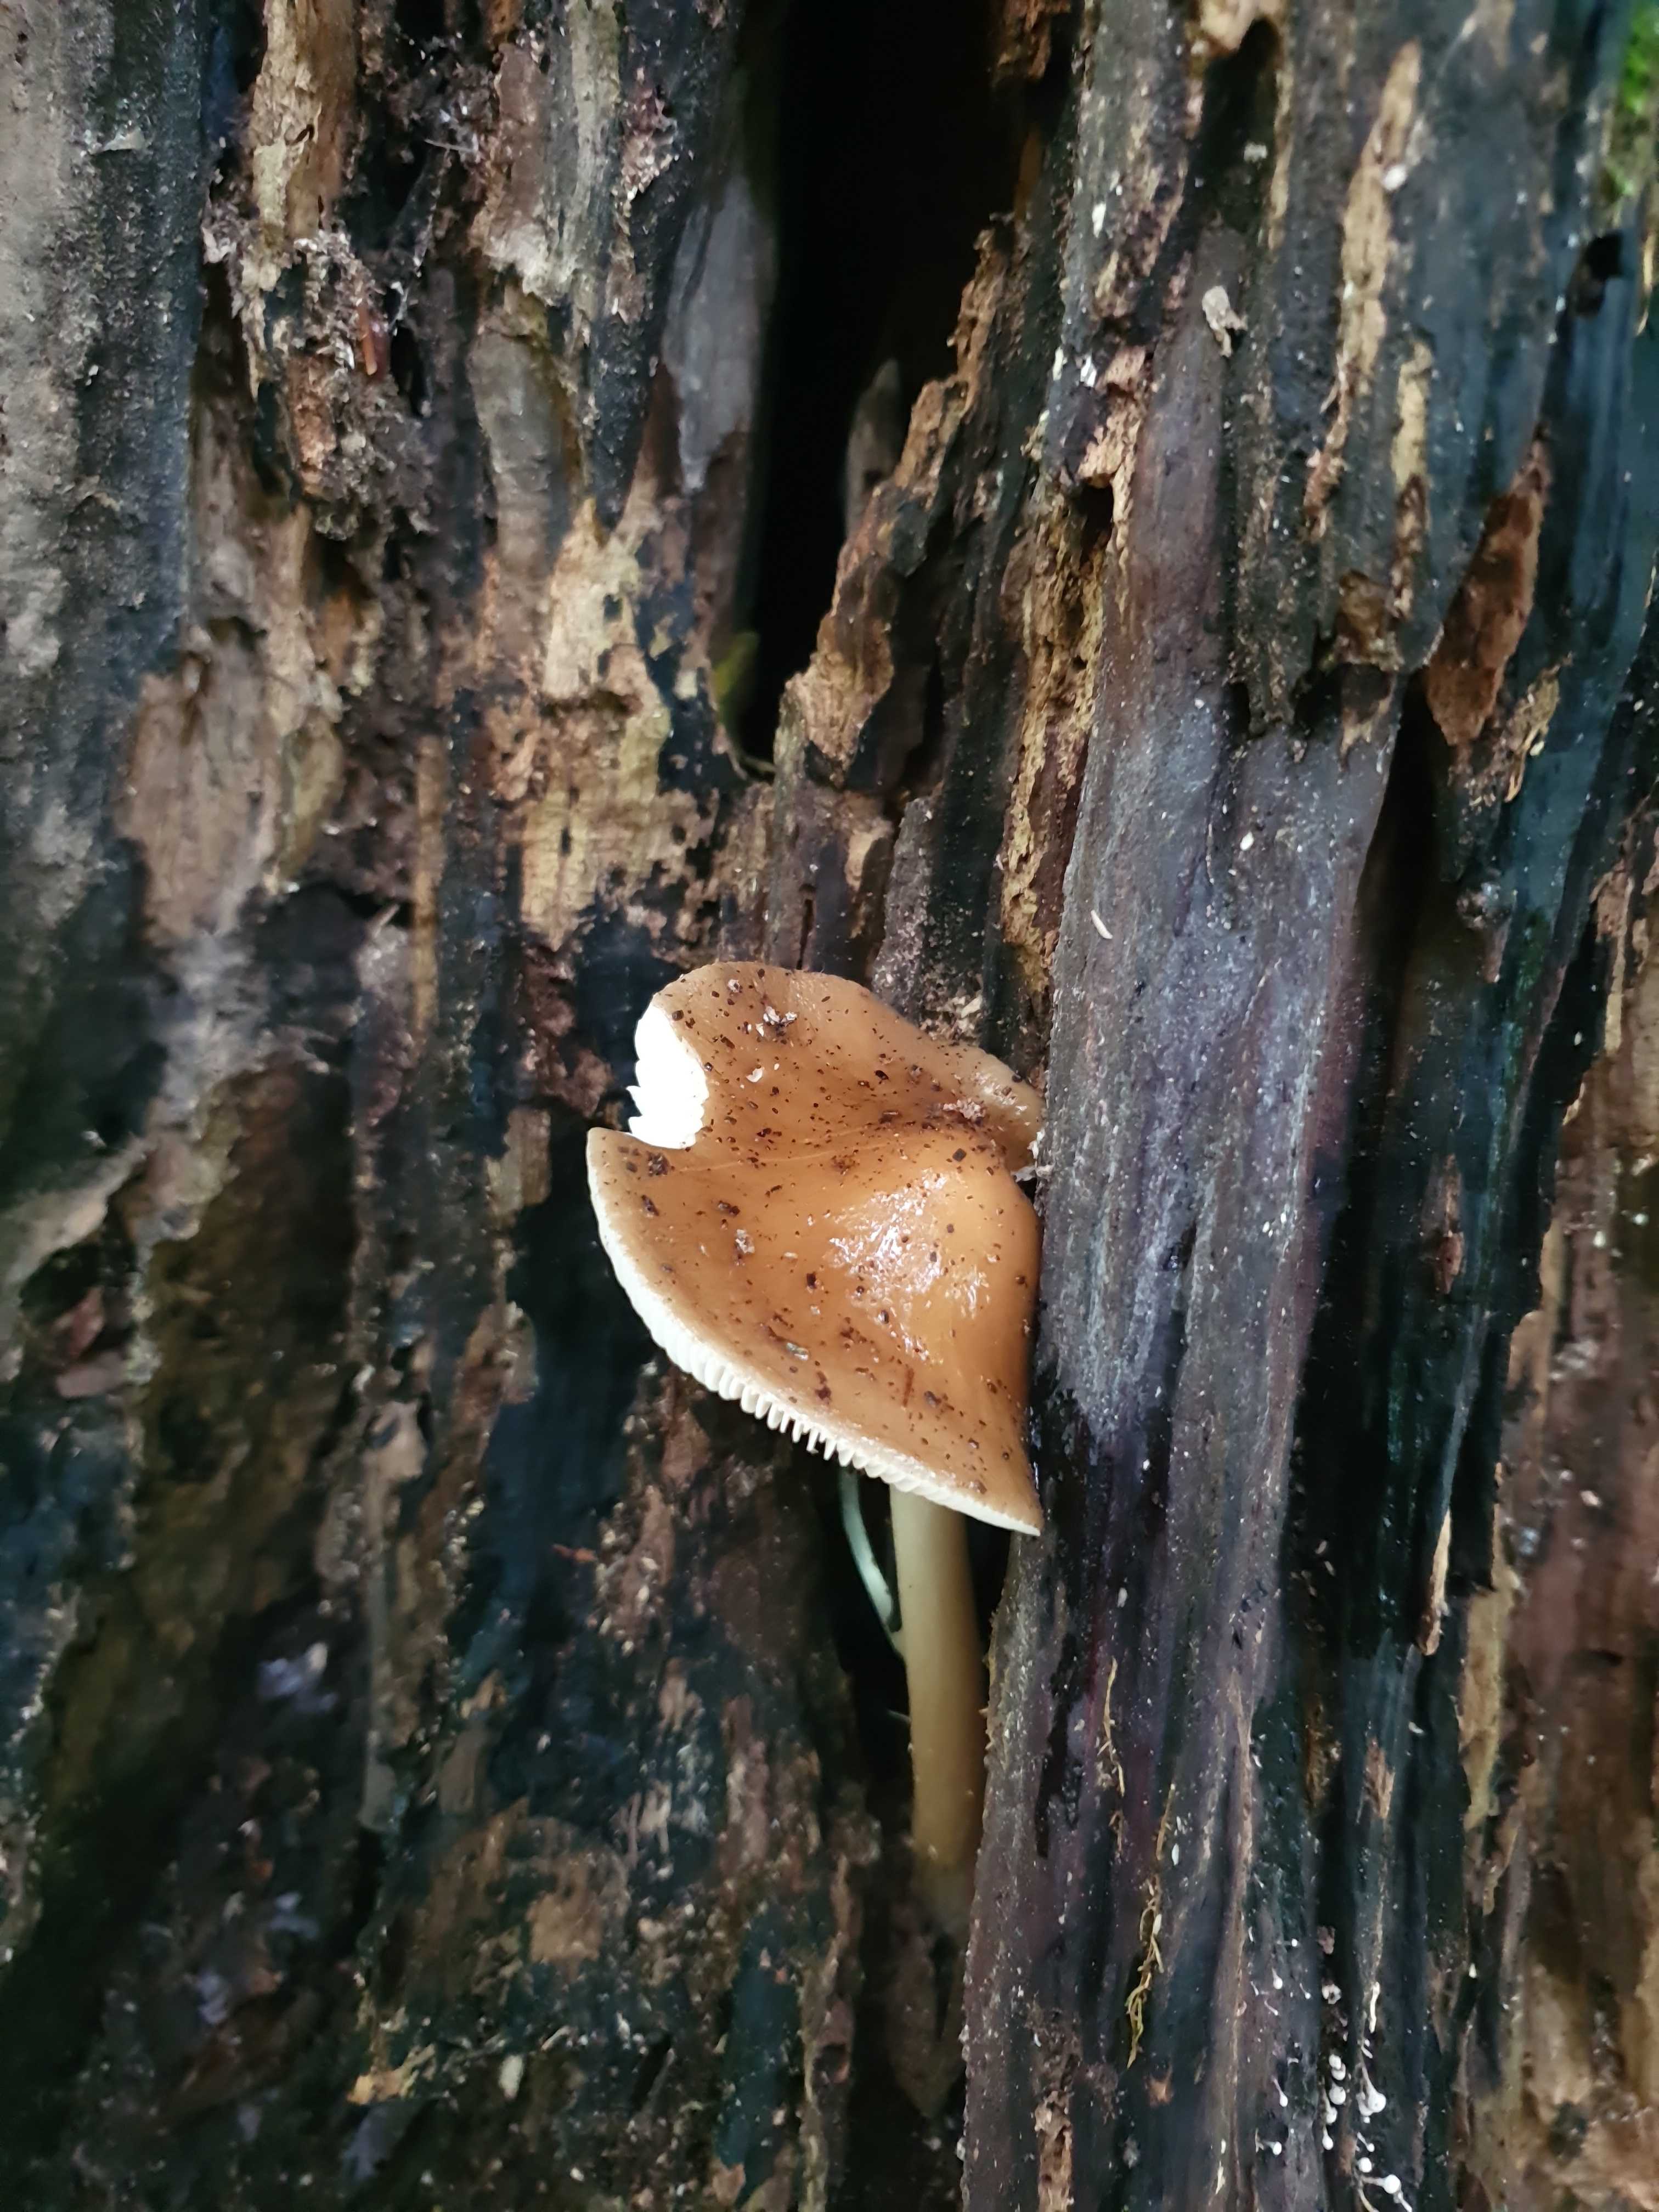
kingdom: Fungi
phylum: Basidiomycota
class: Agaricomycetes
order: Agaricales
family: Physalacriaceae
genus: Hymenopellis
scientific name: Hymenopellis radicata
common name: almindelig pælerodshat
